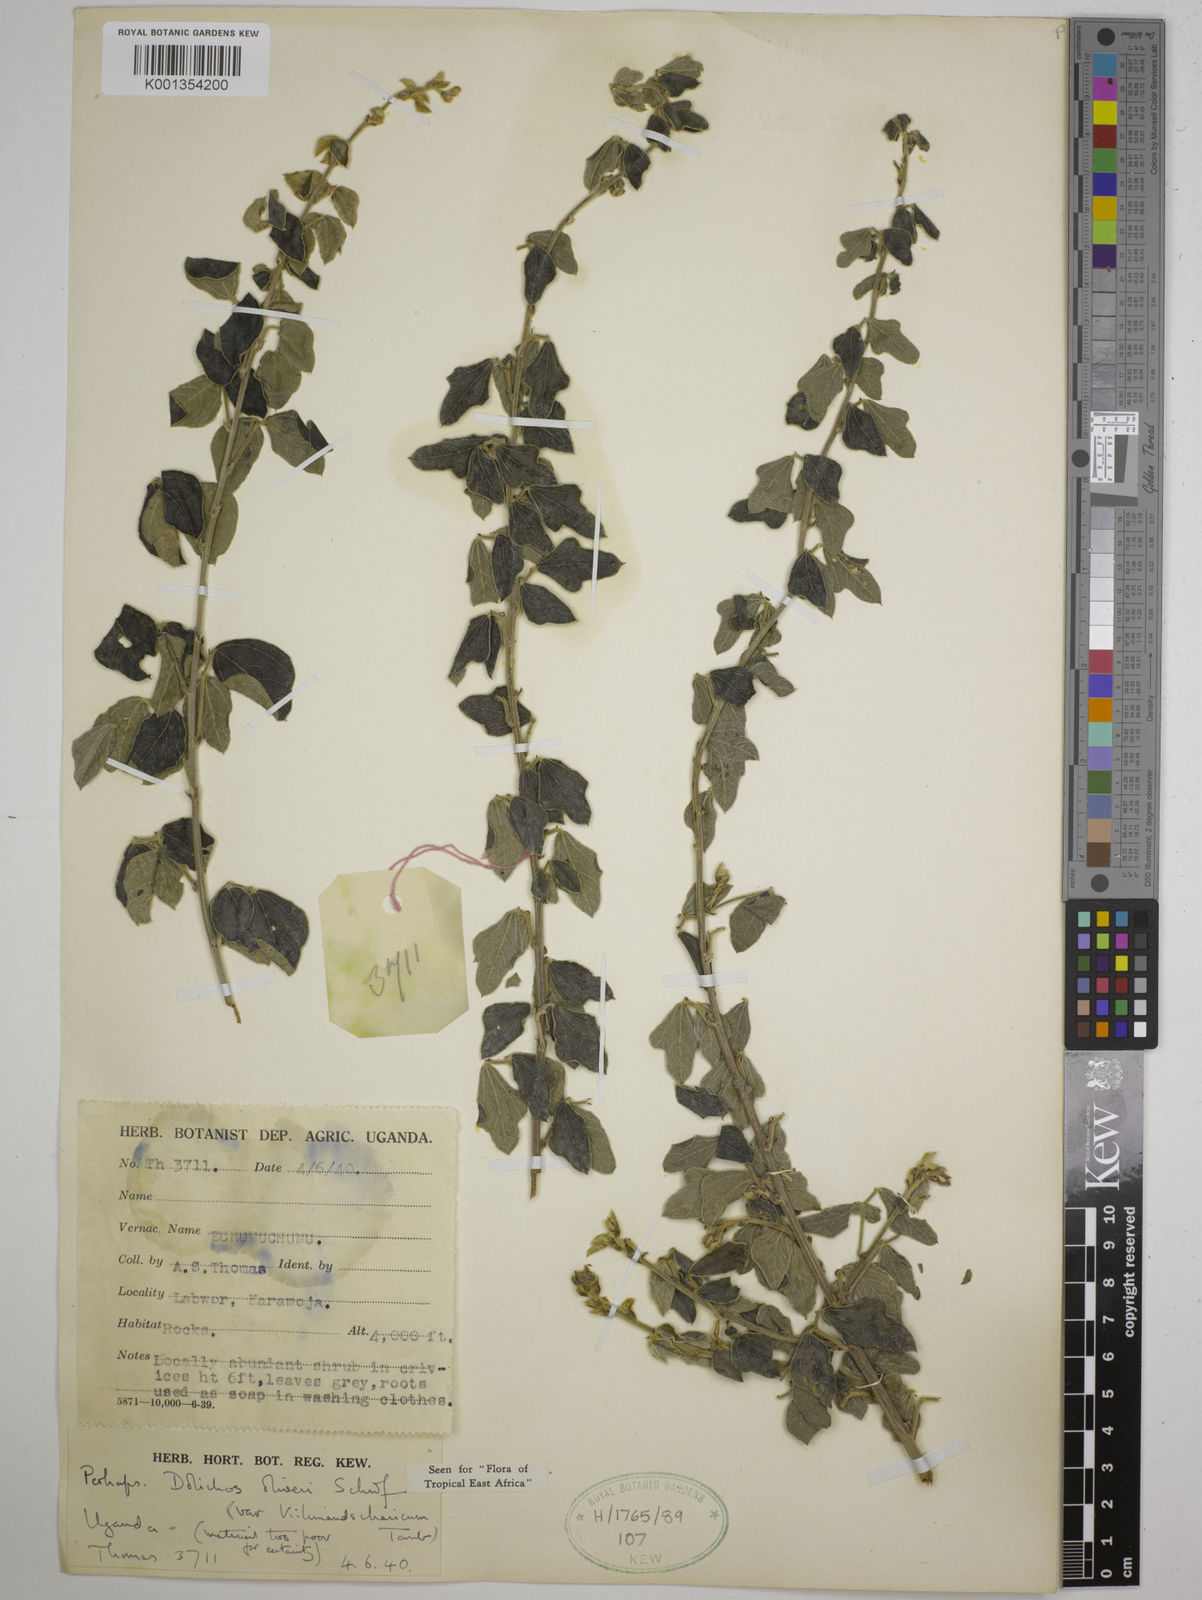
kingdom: Plantae
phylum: Tracheophyta
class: Magnoliopsida
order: Fabales
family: Fabaceae
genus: Dolichos
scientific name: Dolichos
